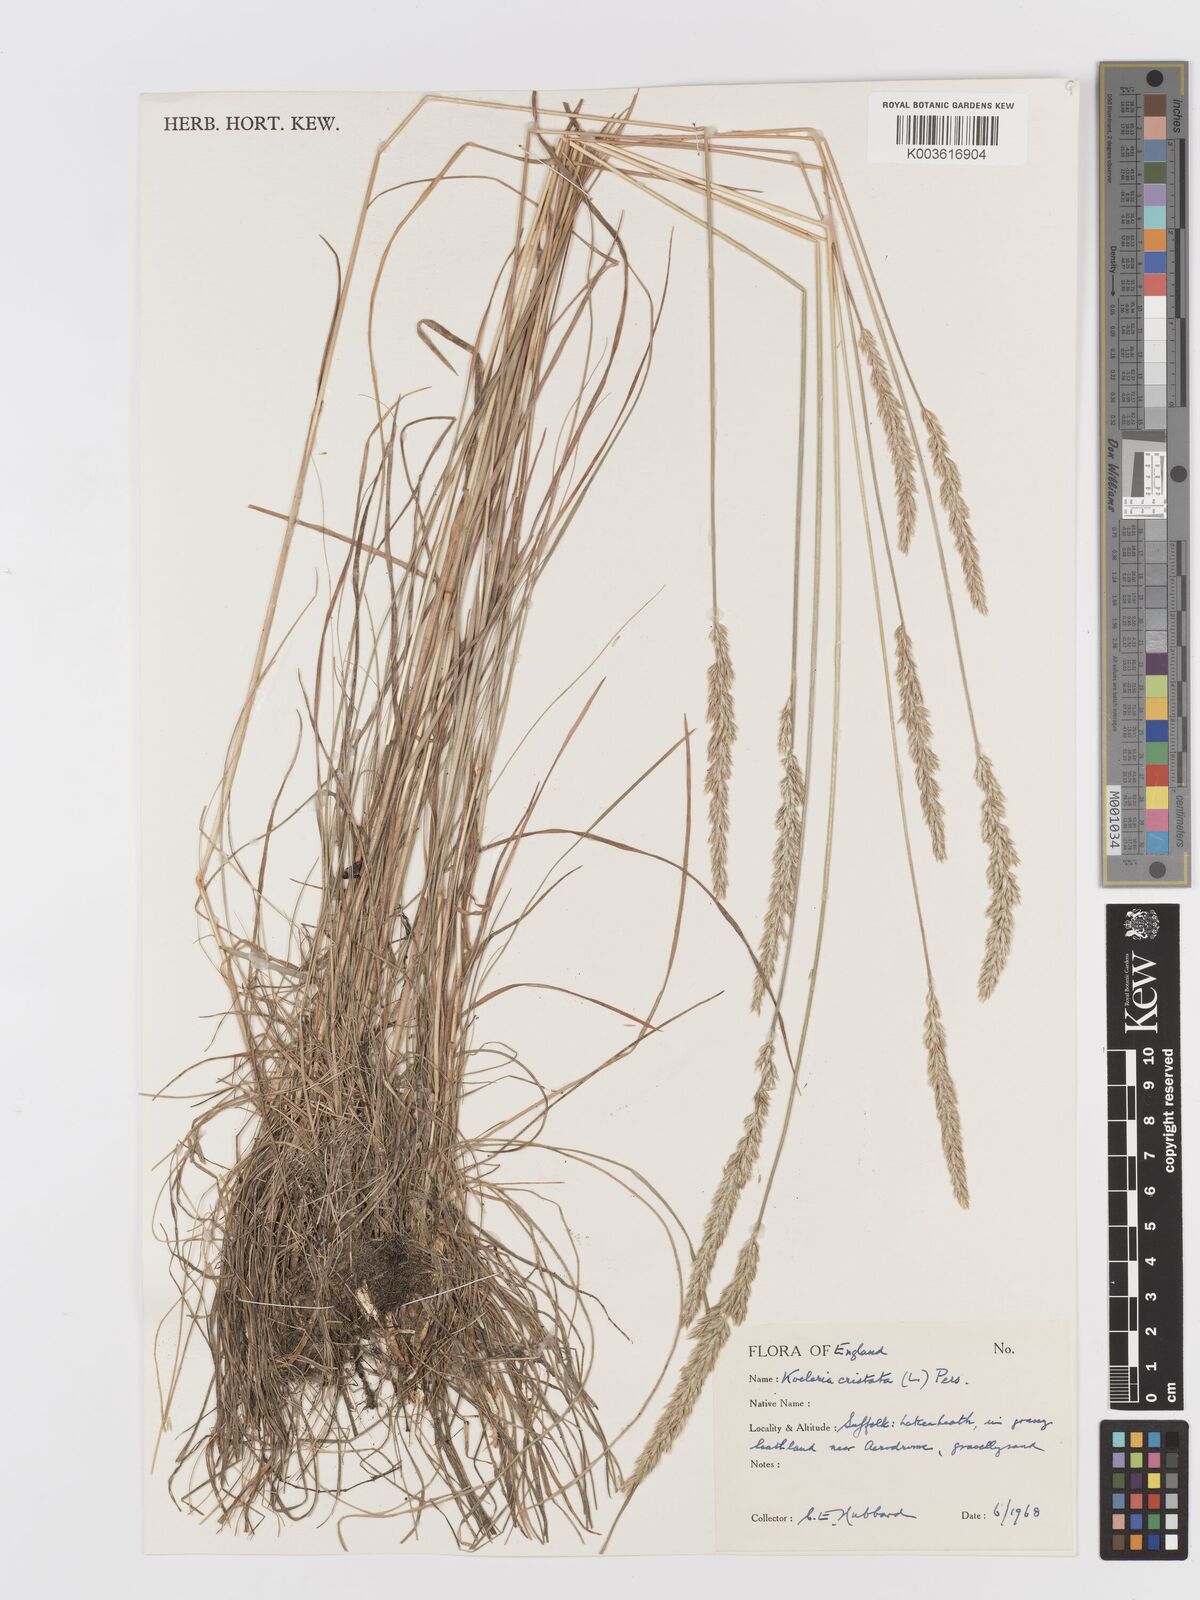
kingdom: Plantae
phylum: Tracheophyta
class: Liliopsida
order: Poales
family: Poaceae
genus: Koeleria
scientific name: Koeleria macrantha
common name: Crested hair-grass
